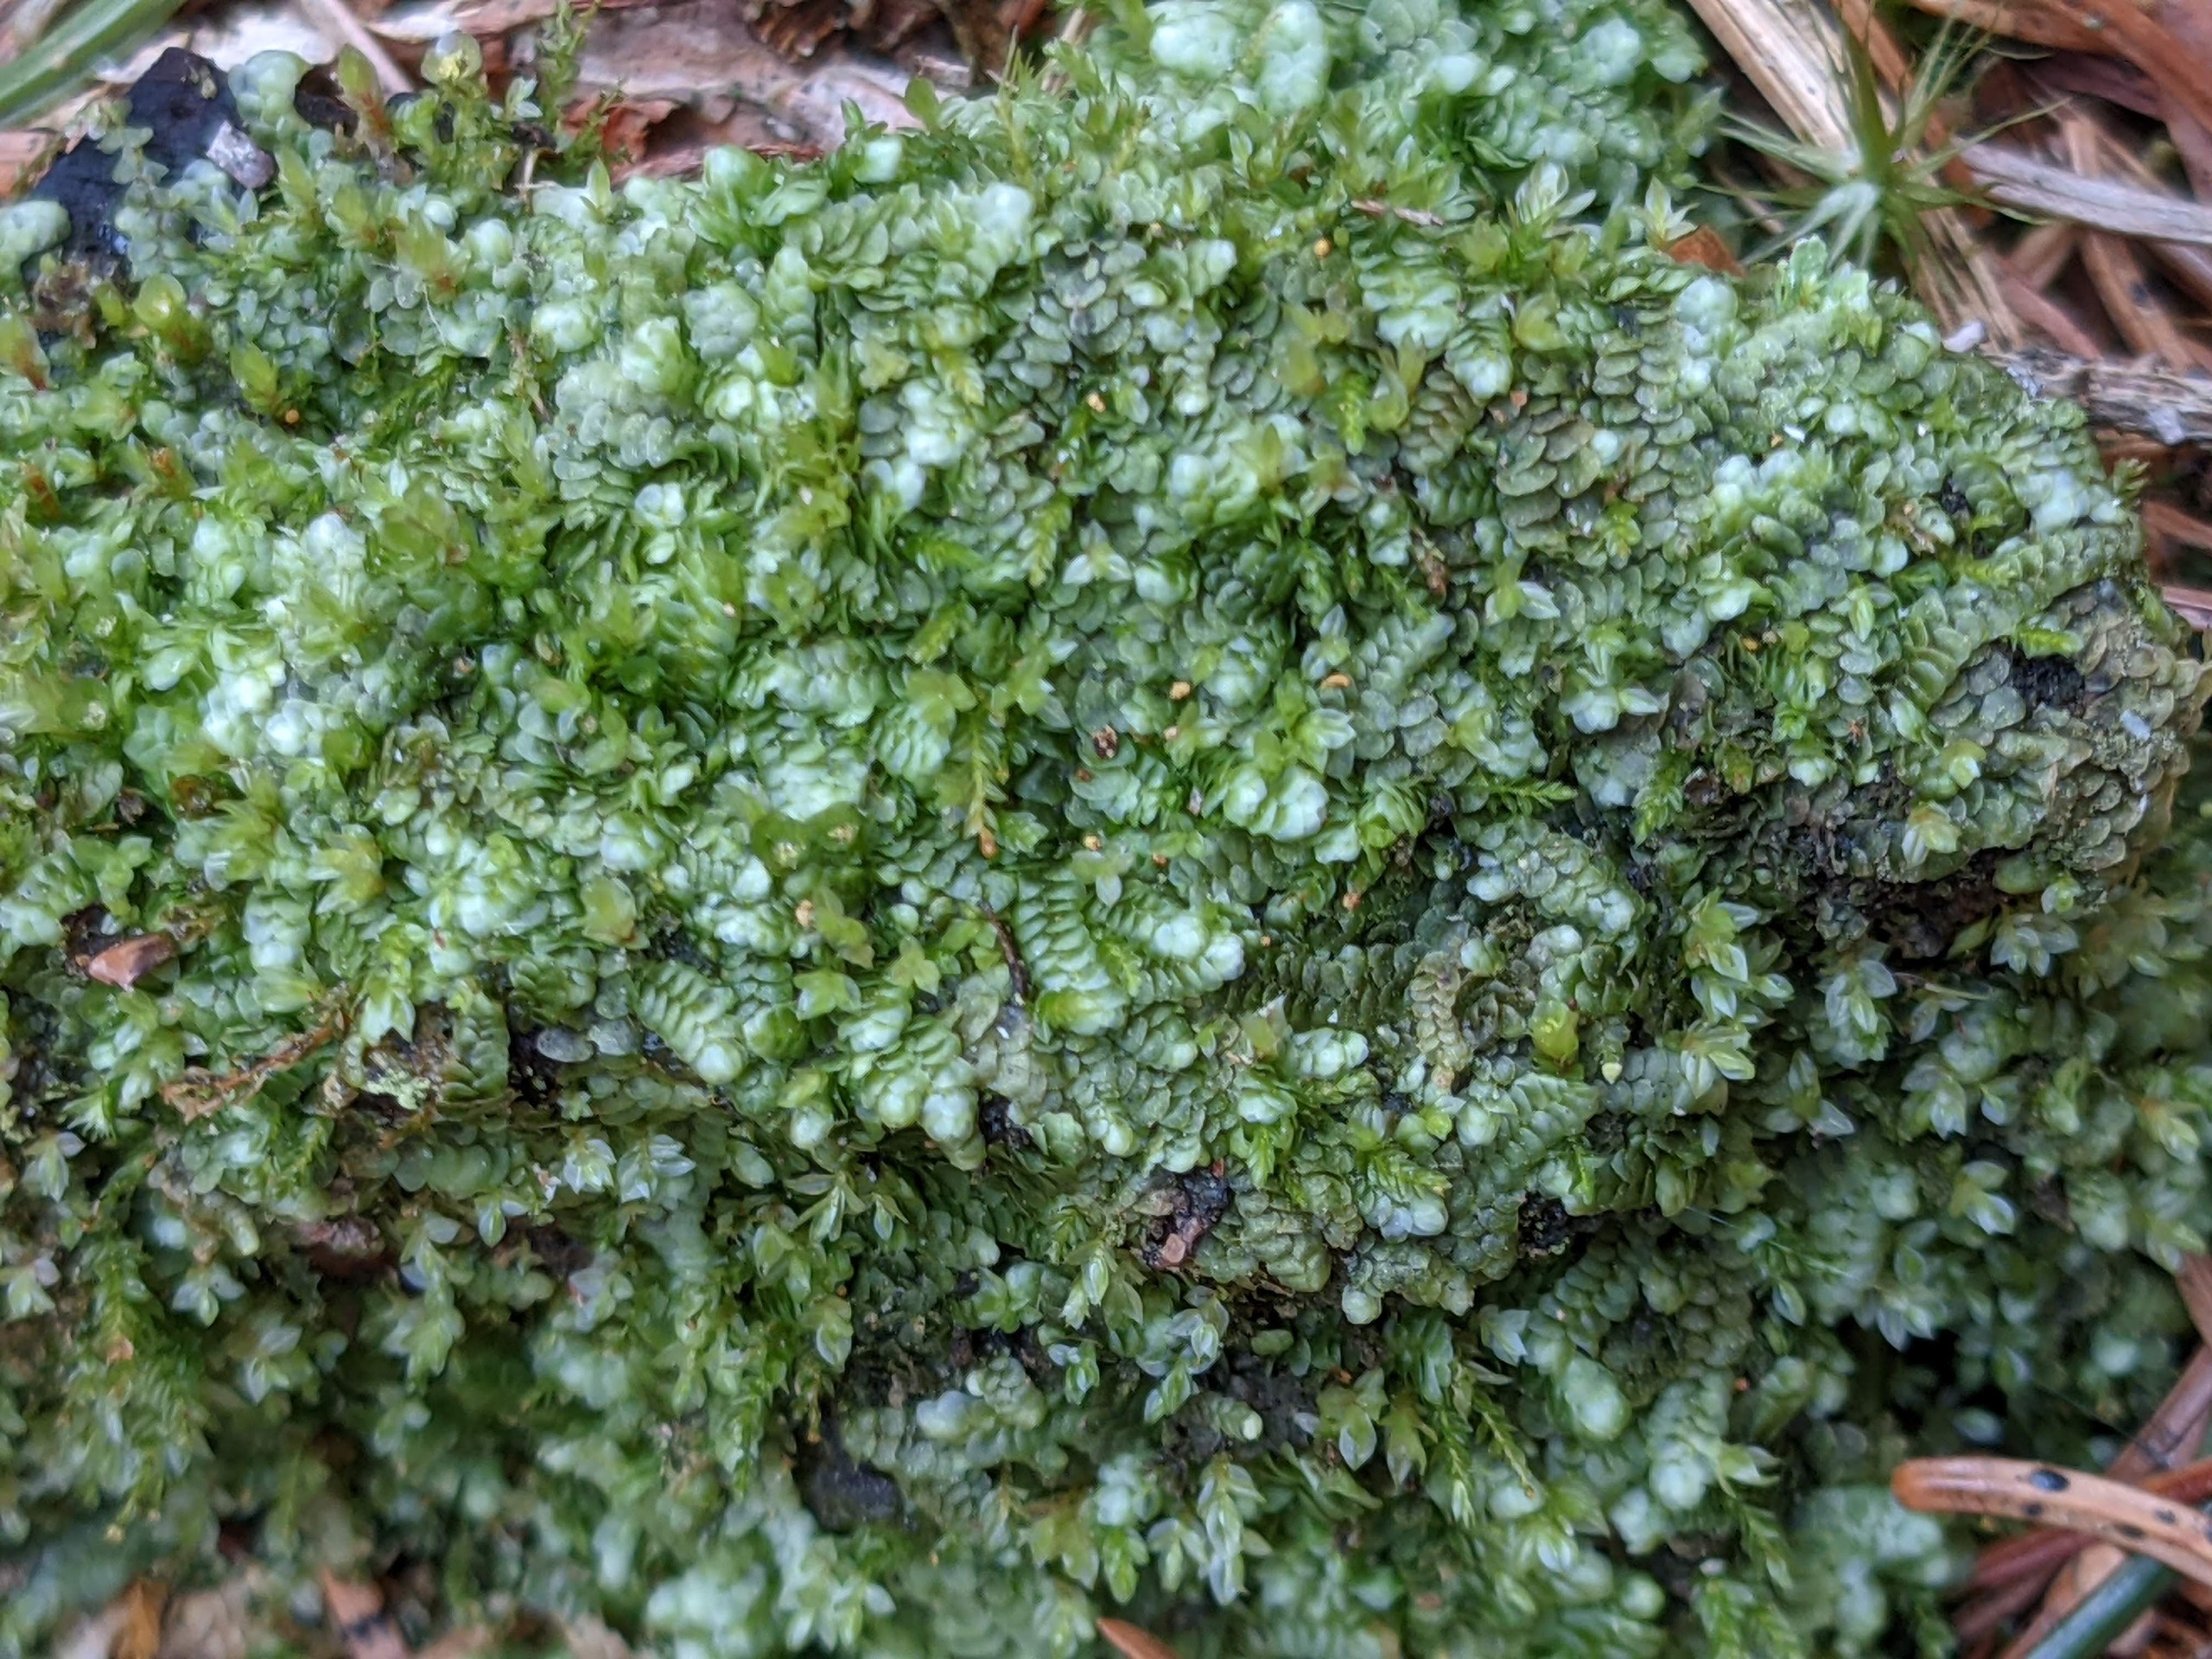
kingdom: Plantae
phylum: Marchantiophyta
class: Jungermanniopsida
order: Jungermanniales
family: Calypogeiaceae
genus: Calypogeia
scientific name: Calypogeia muelleriana
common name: Almindelig sækmos
